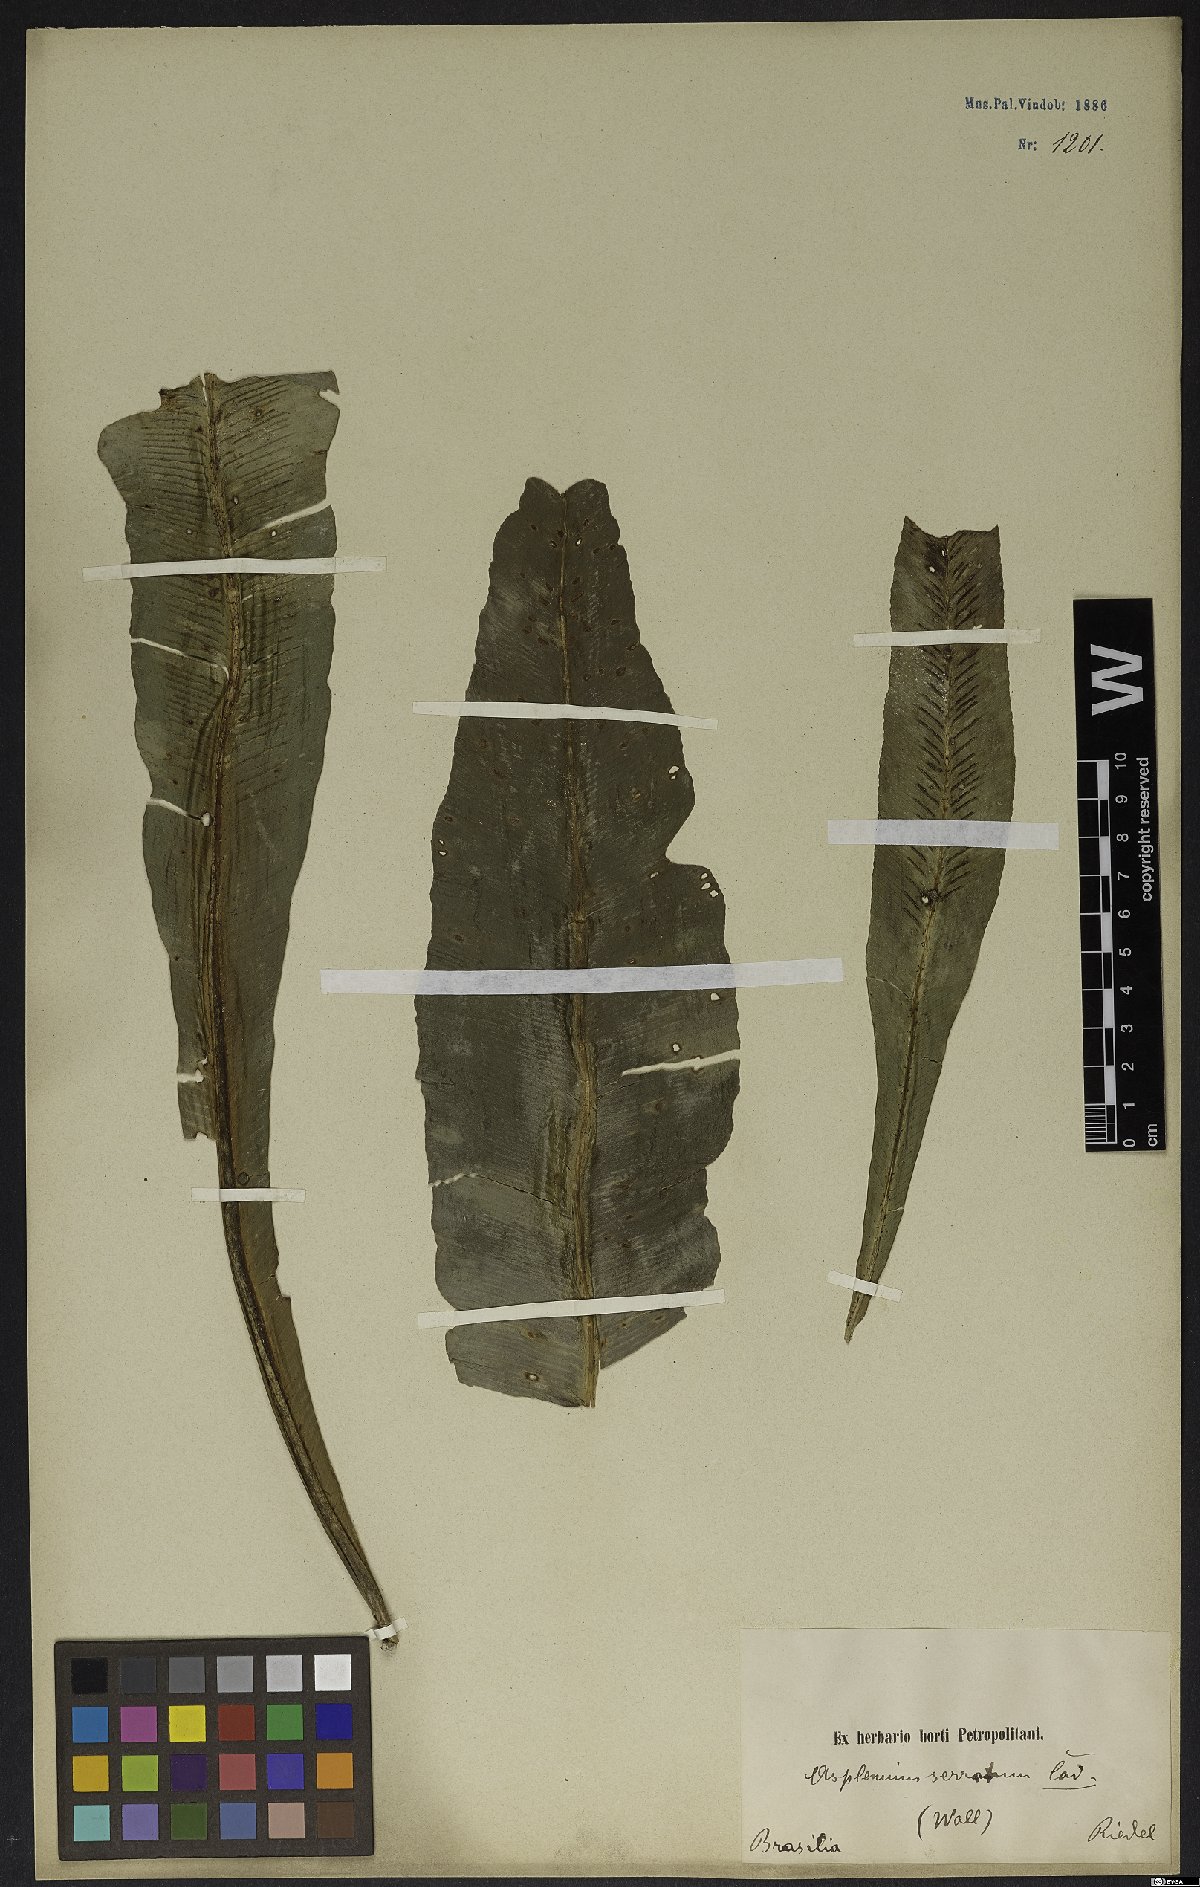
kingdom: Plantae
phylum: Tracheophyta
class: Polypodiopsida
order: Polypodiales
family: Aspleniaceae
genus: Asplenium
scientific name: Asplenium serratum
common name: Wild birdnest fern
